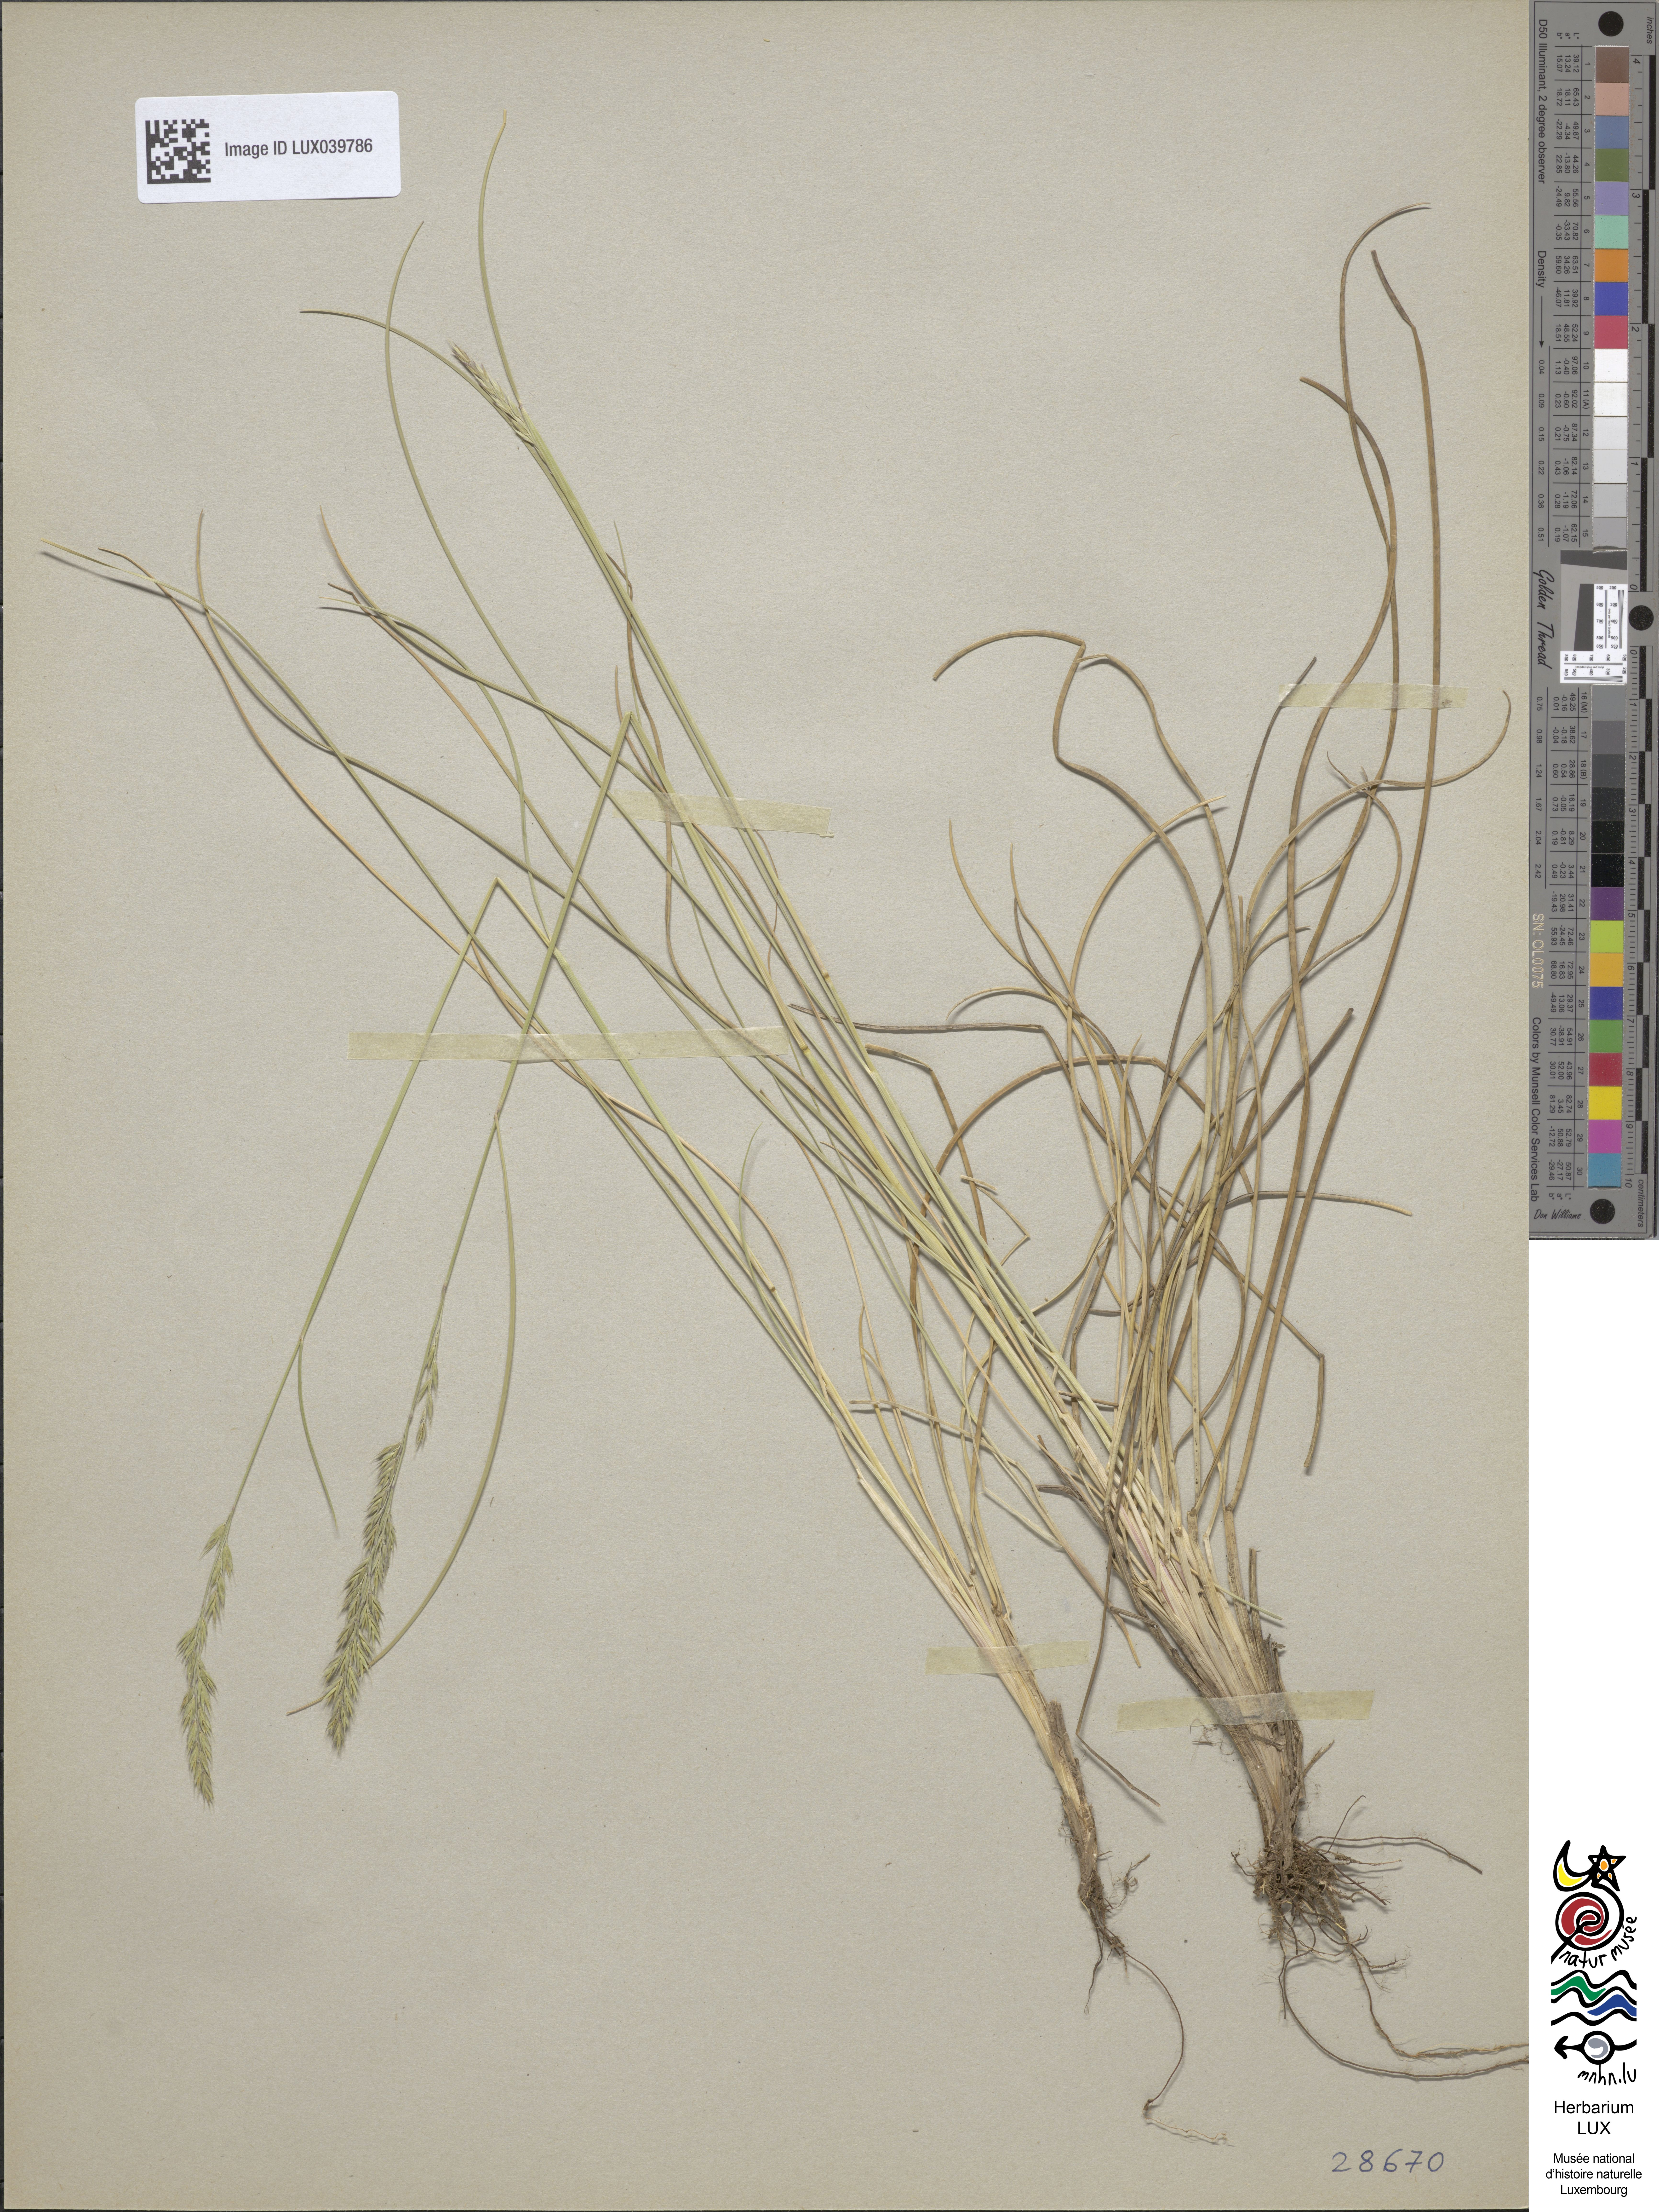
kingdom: Plantae
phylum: Tracheophyta
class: Liliopsida
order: Poales
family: Poaceae
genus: Festuca
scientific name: Festuca longifolia
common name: Blue fescue
